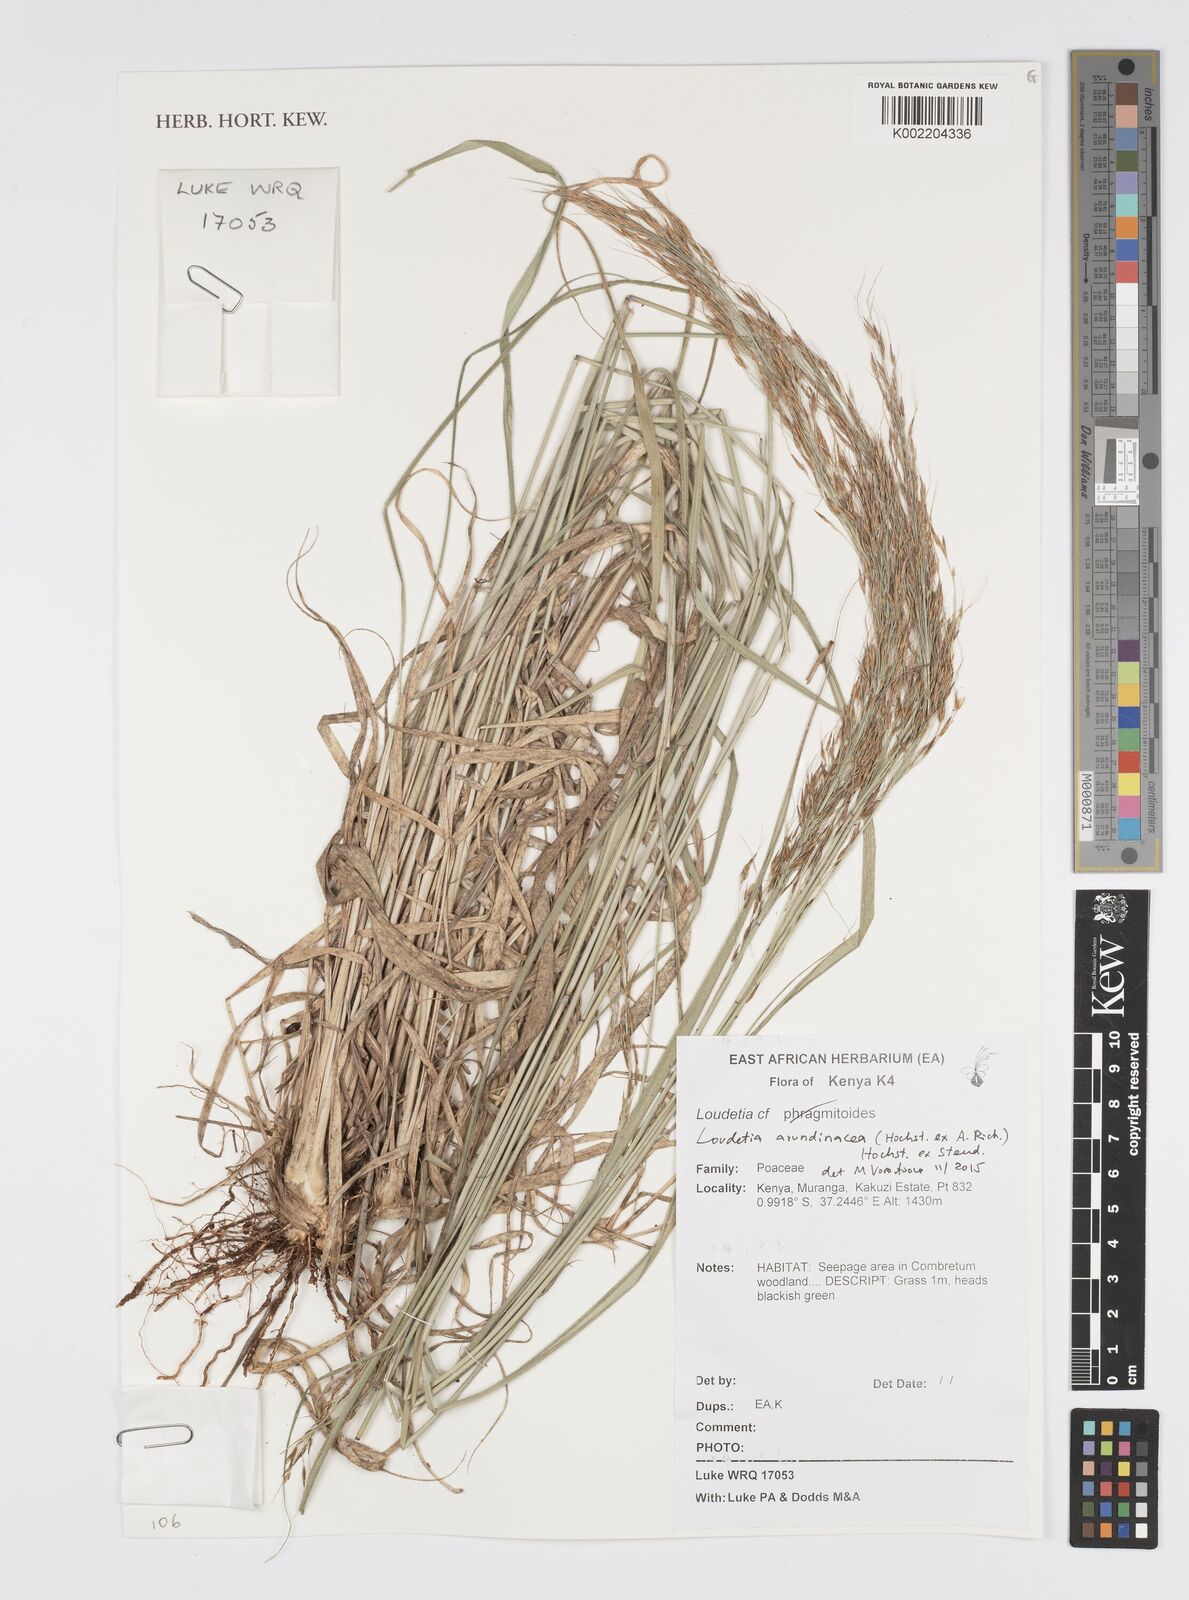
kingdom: Plantae
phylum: Tracheophyta
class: Liliopsida
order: Poales
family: Poaceae
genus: Loudetia
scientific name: Loudetia arundinacea
